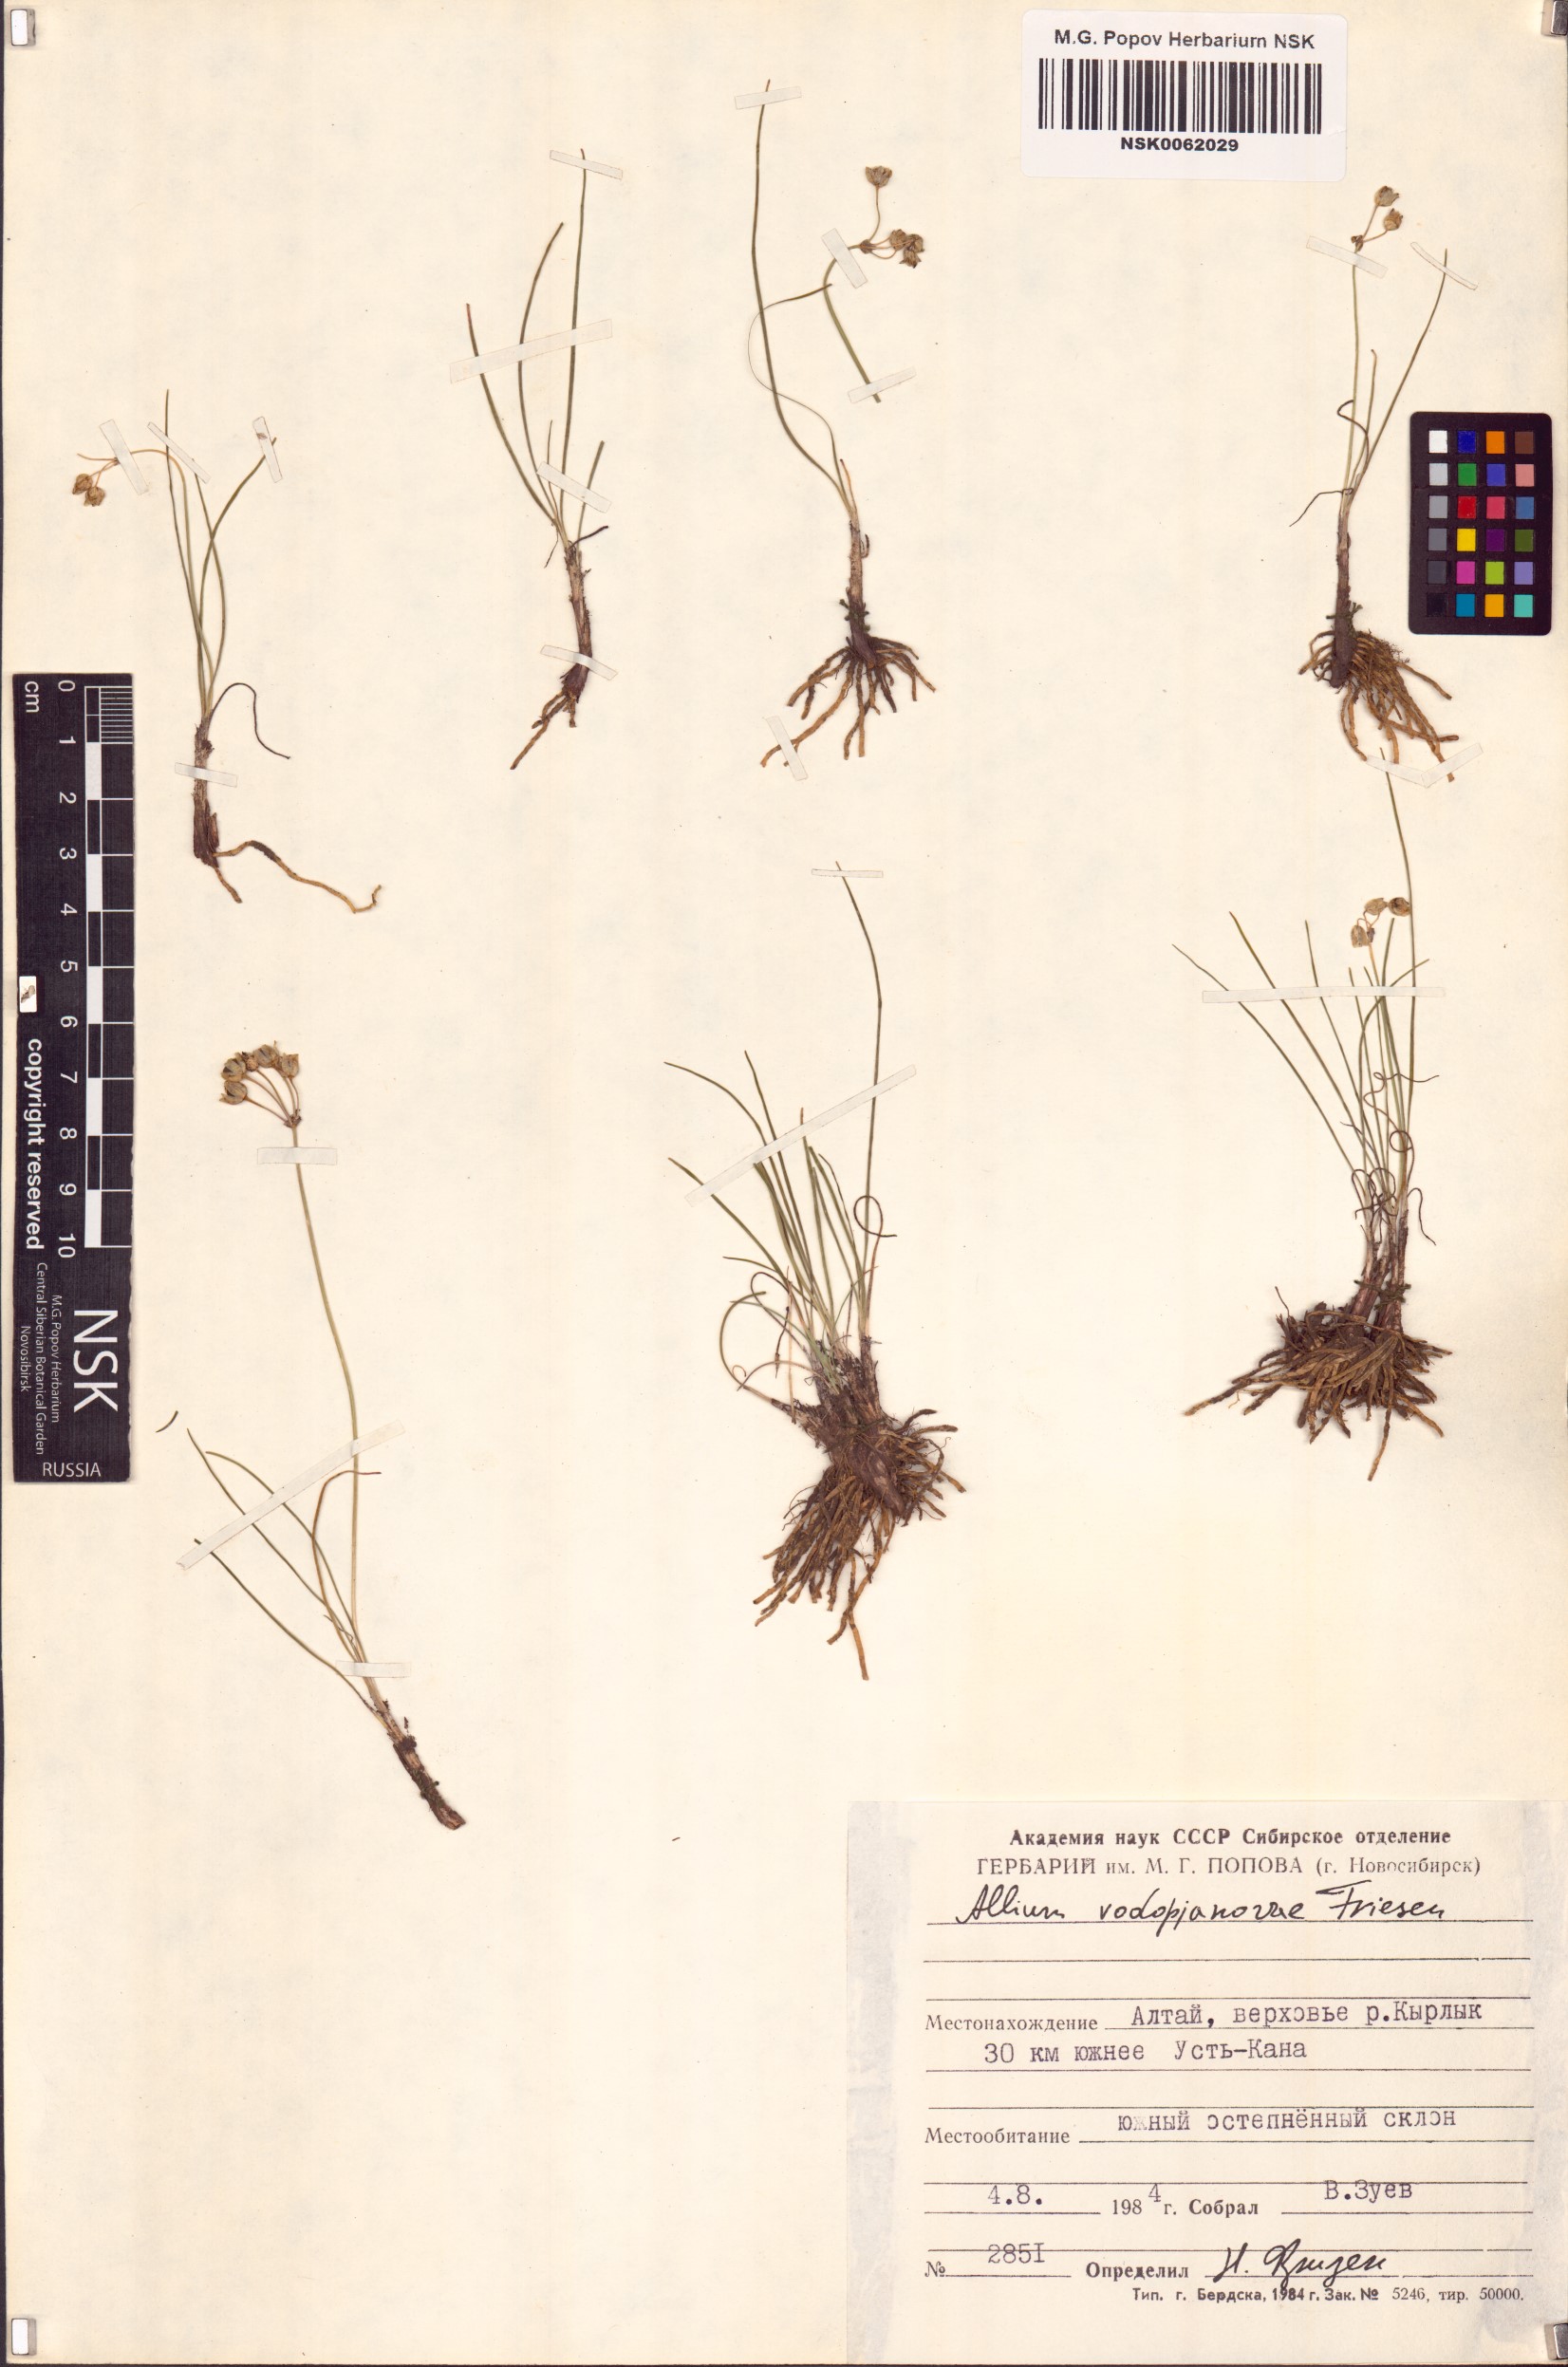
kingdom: Plantae
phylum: Tracheophyta
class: Liliopsida
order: Asparagales
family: Amaryllidaceae
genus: Allium
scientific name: Allium vodopjanovae
